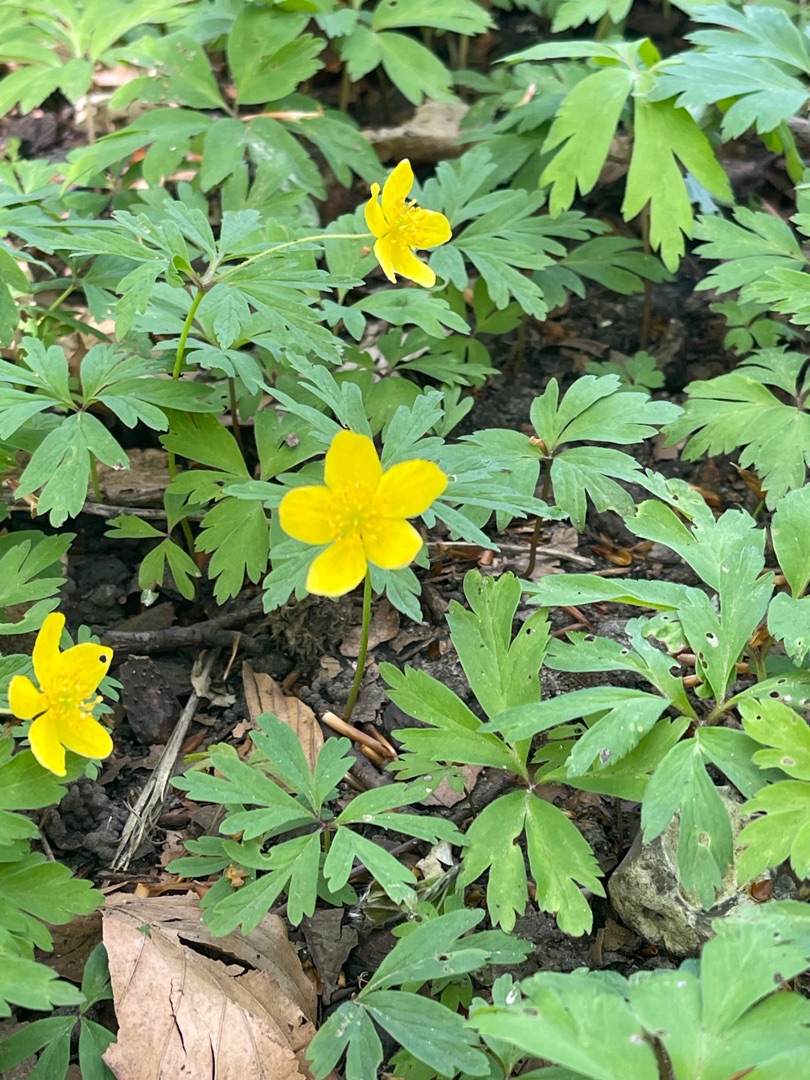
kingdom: Plantae
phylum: Tracheophyta
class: Magnoliopsida
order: Ranunculales
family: Ranunculaceae
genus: Anemone
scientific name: Anemone ranunculoides
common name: Gul anemone
